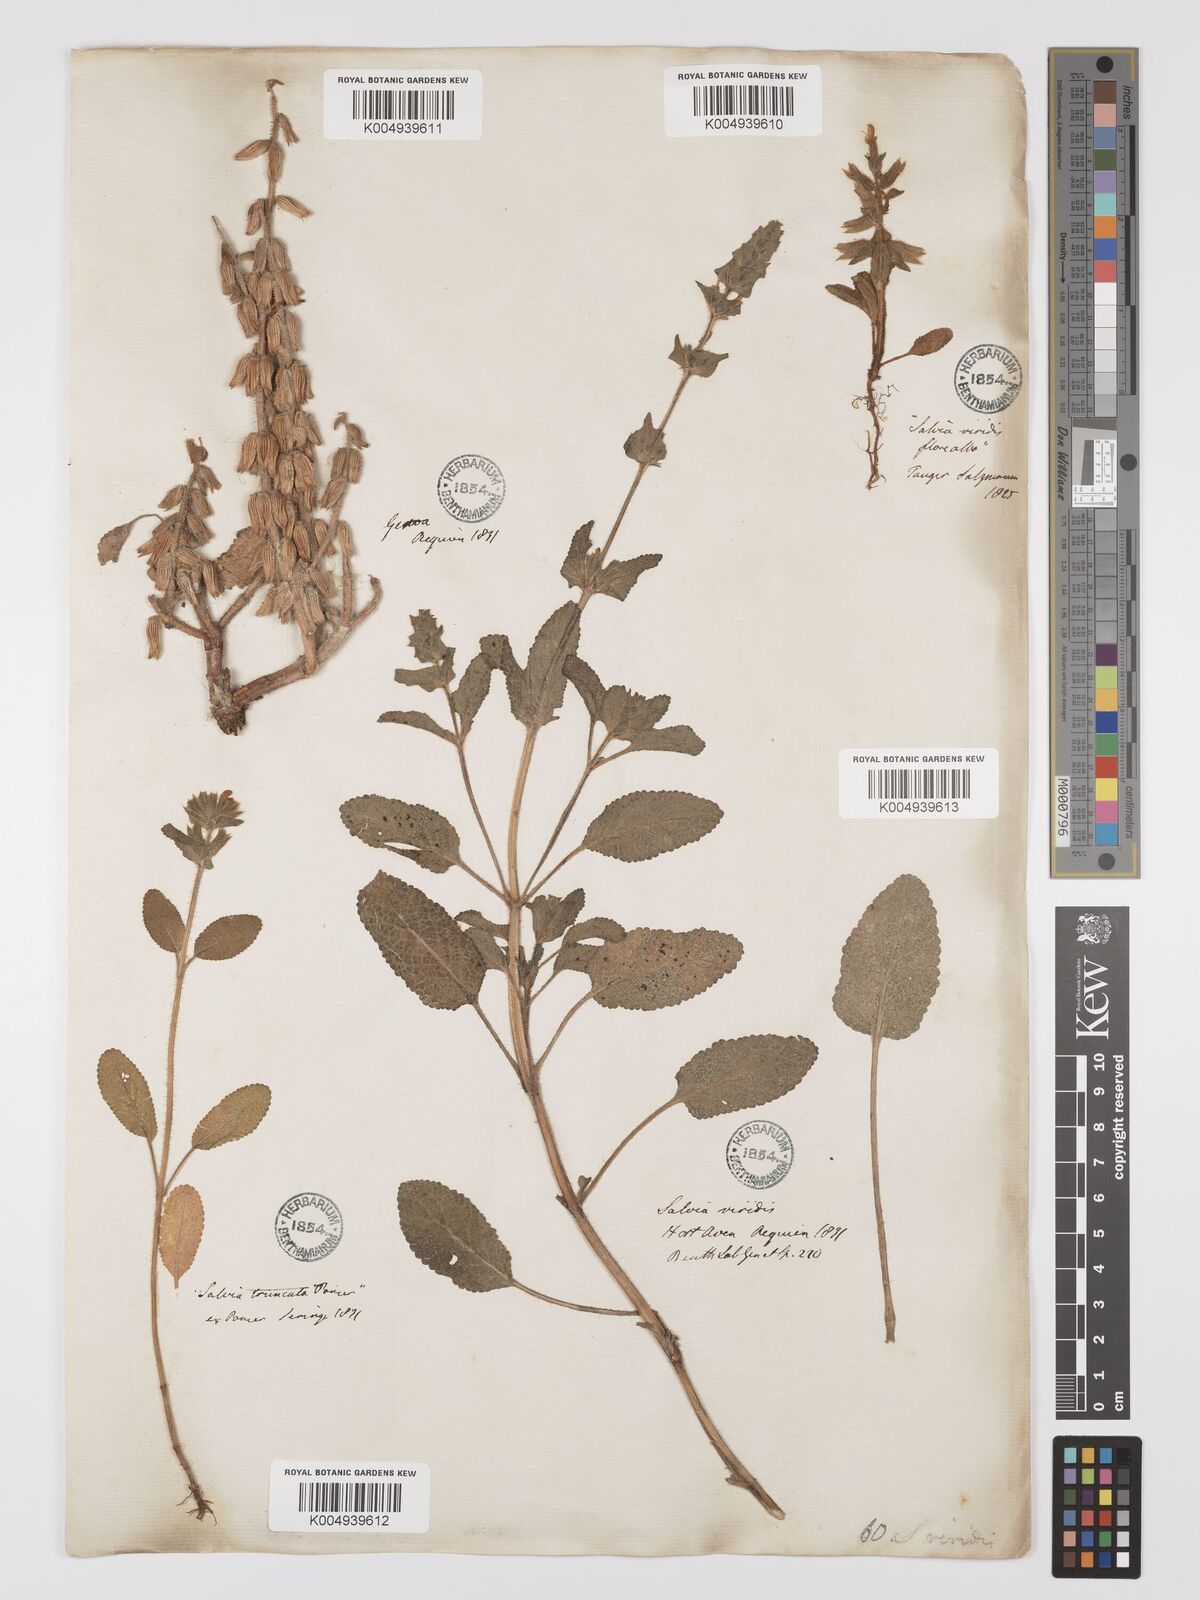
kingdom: Plantae
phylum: Tracheophyta
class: Magnoliopsida
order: Lamiales
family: Lamiaceae
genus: Salvia
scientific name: Salvia viridis
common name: Annual clary
